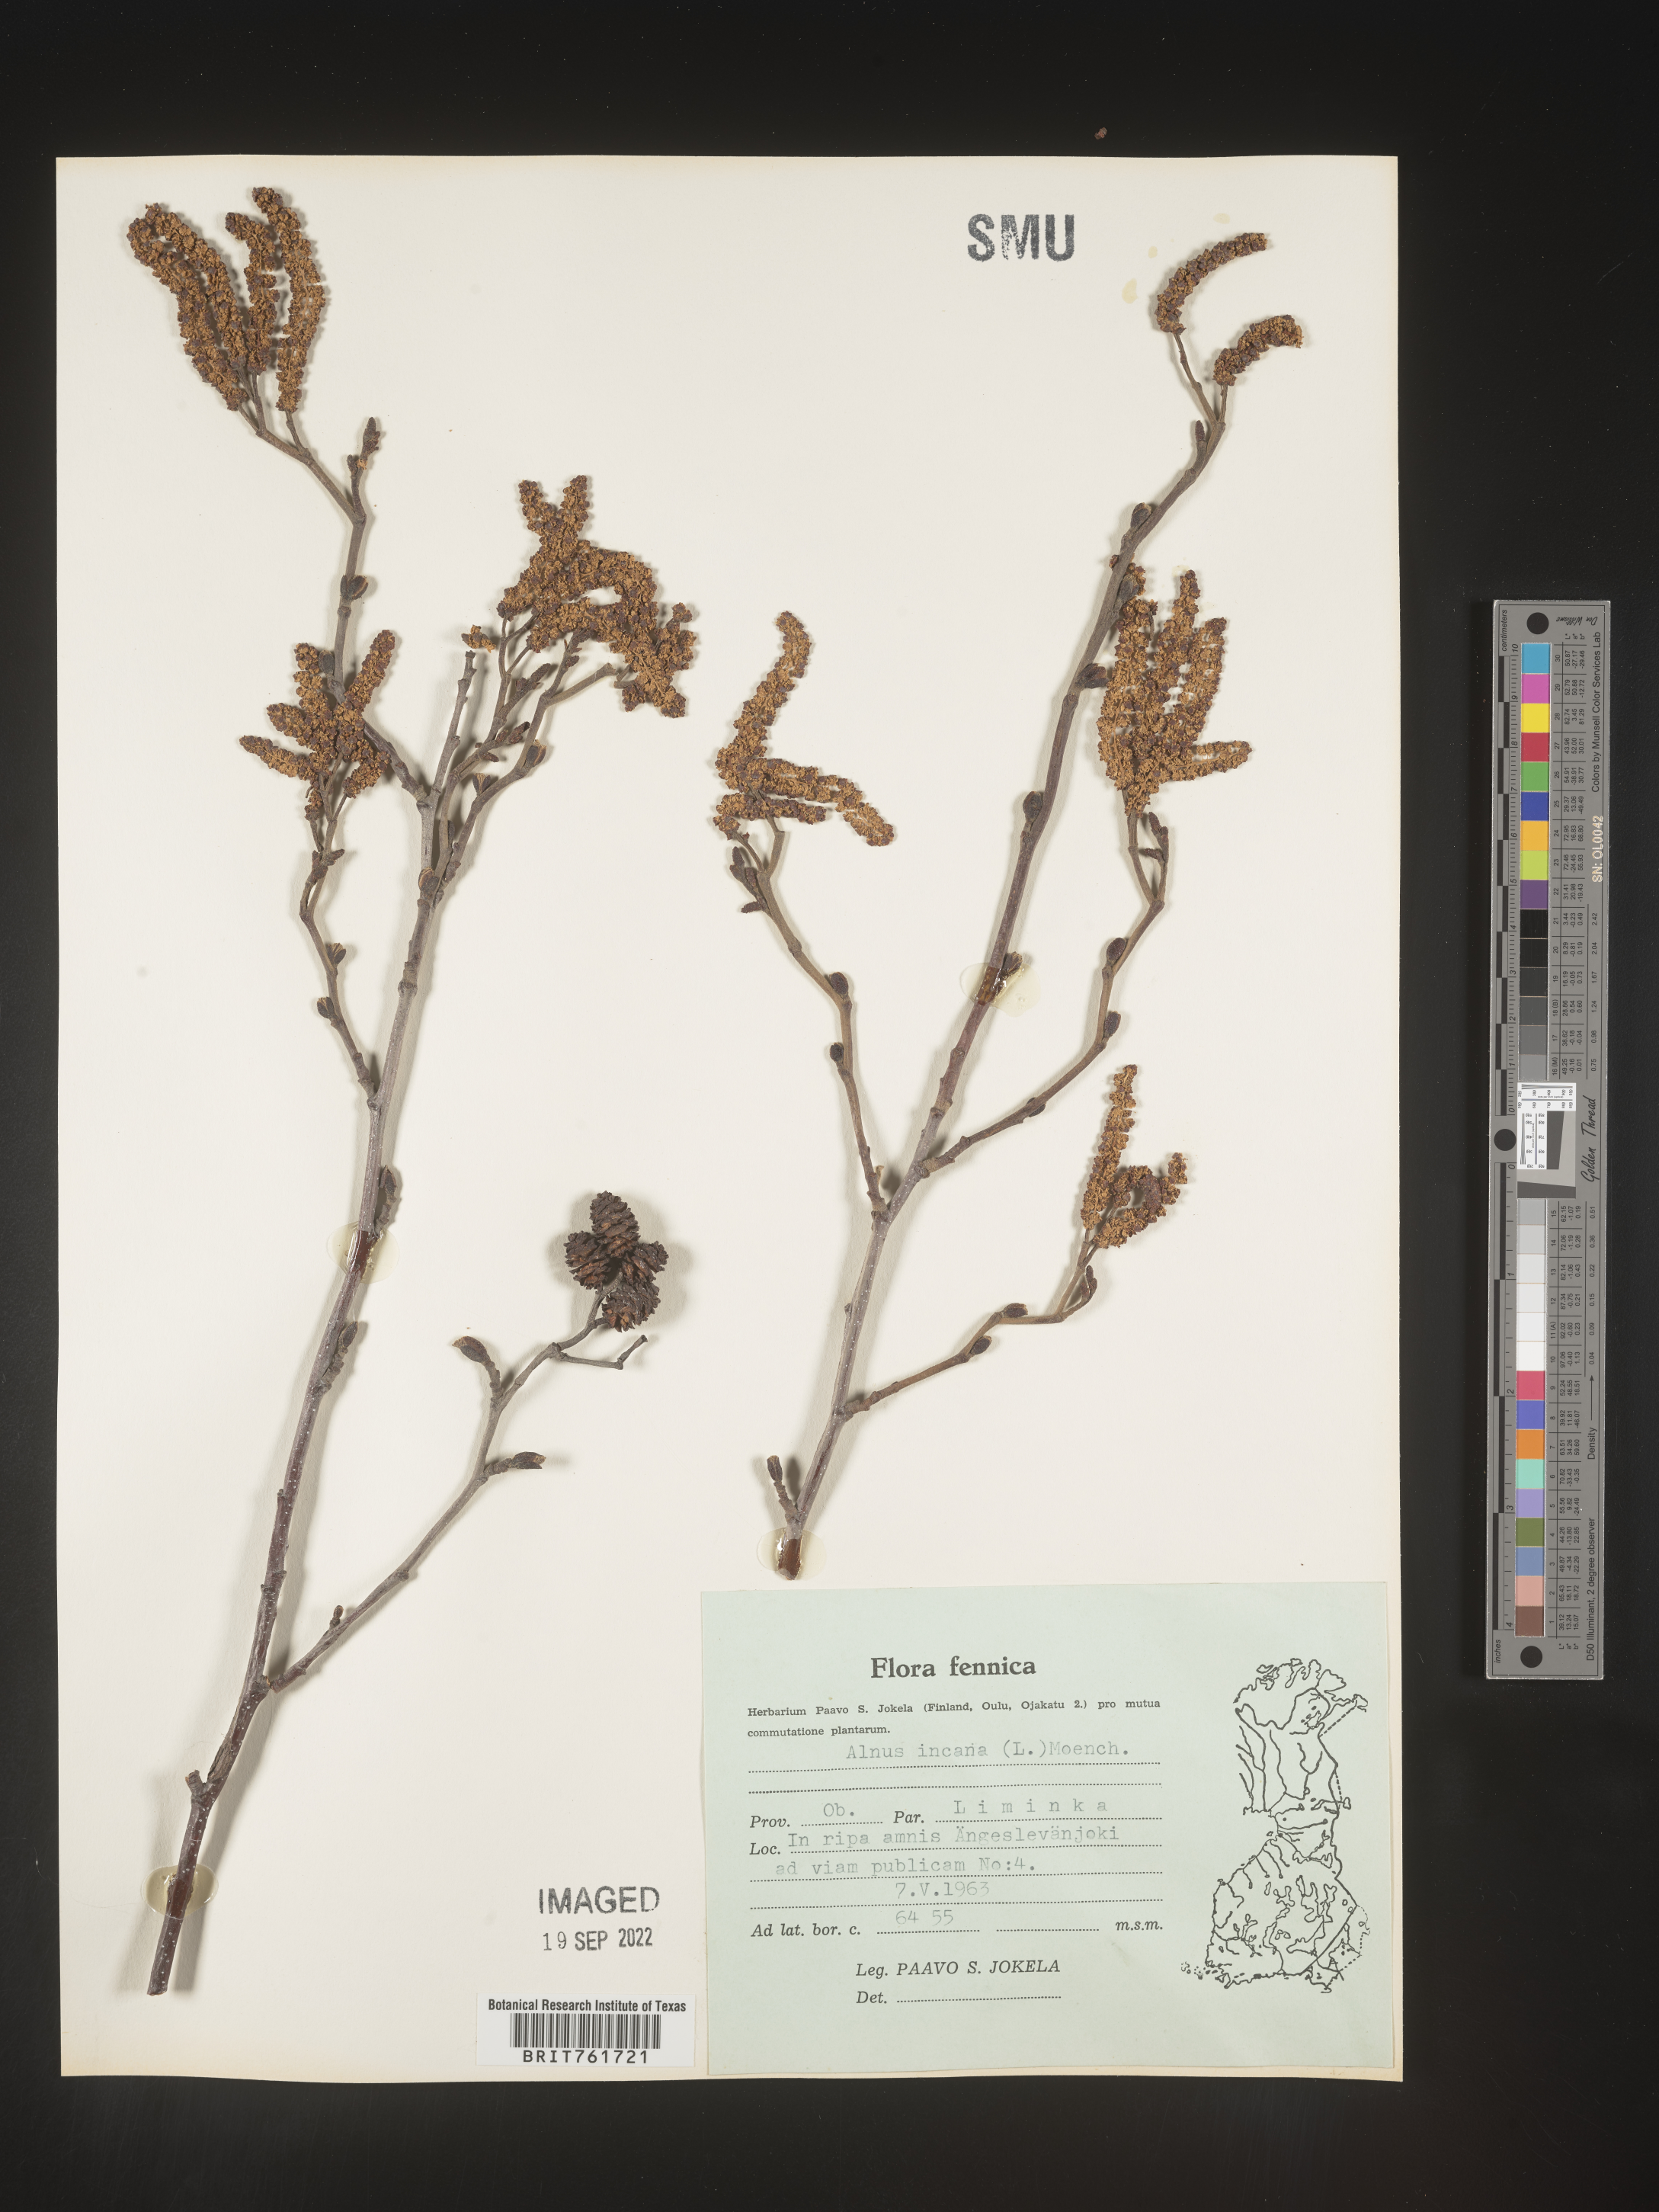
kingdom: Plantae
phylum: Tracheophyta
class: Magnoliopsida
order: Fagales
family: Betulaceae
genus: Alnus
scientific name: Alnus
